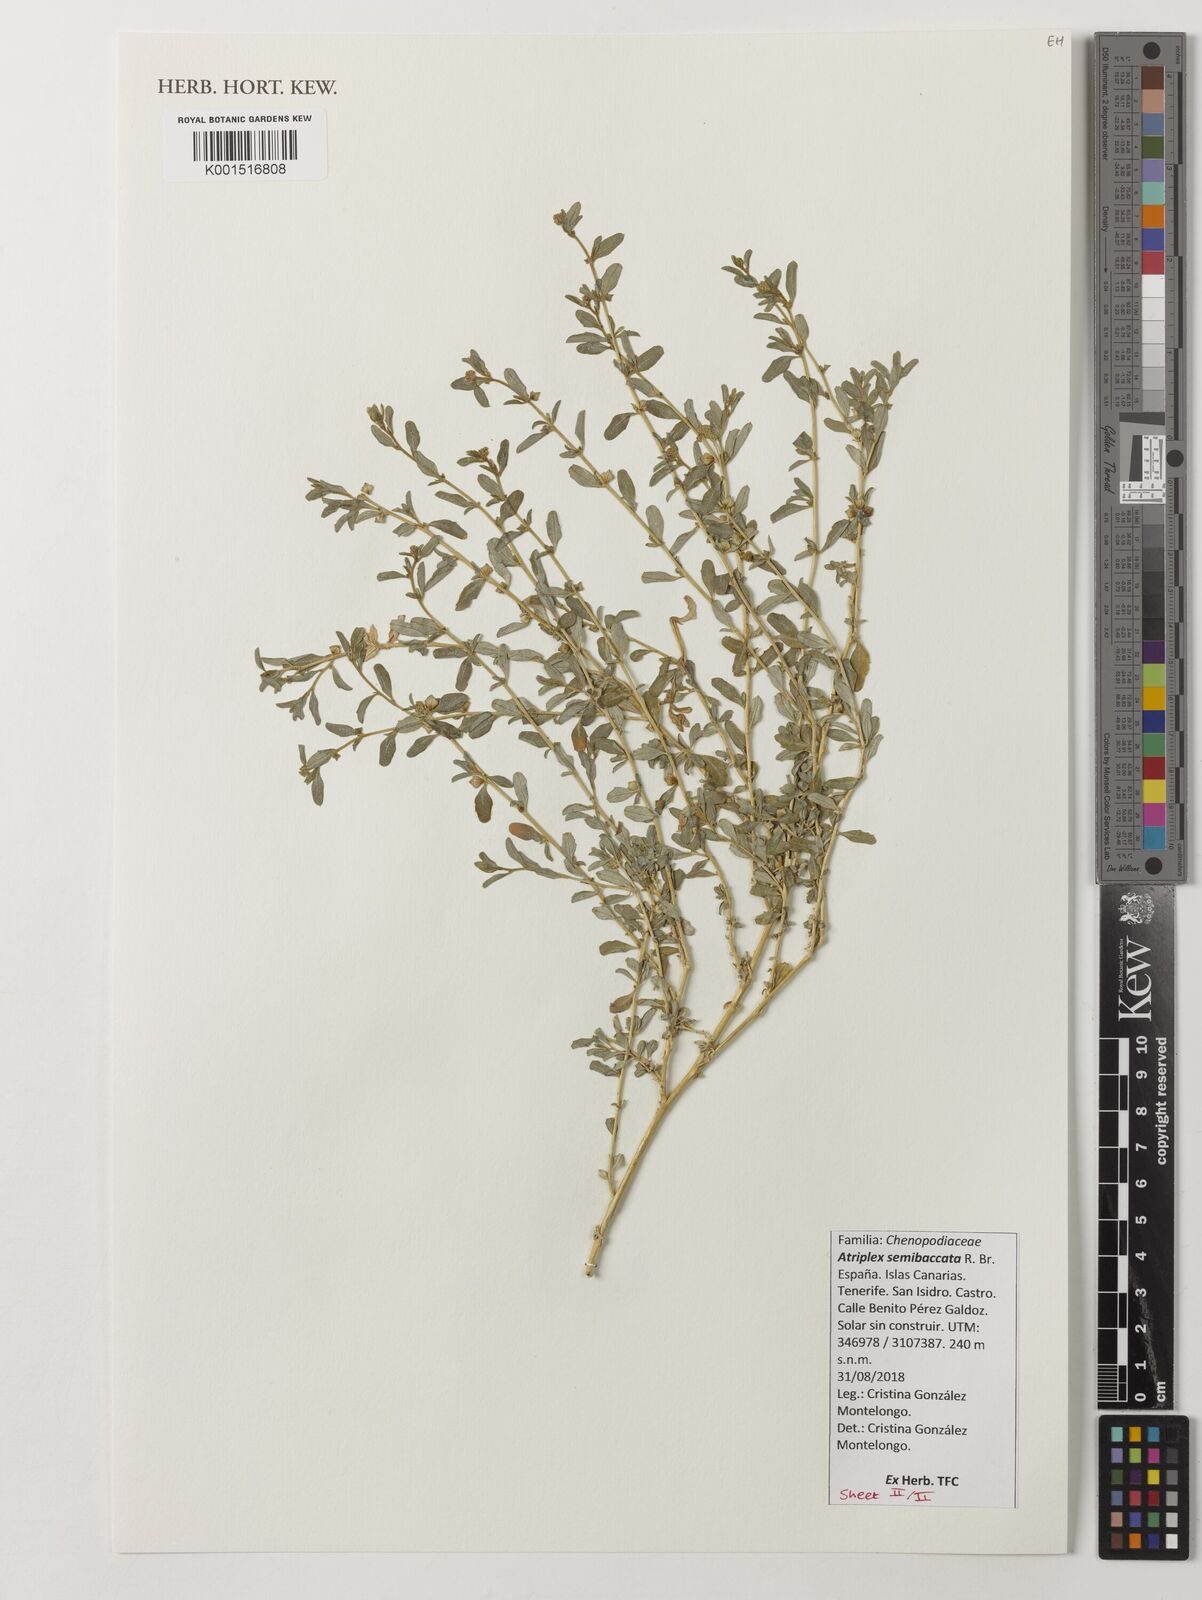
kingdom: Plantae
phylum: Tracheophyta
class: Magnoliopsida
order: Caryophyllales
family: Amaranthaceae
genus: Atriplex
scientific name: Atriplex semibaccata
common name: Australian saltbush
